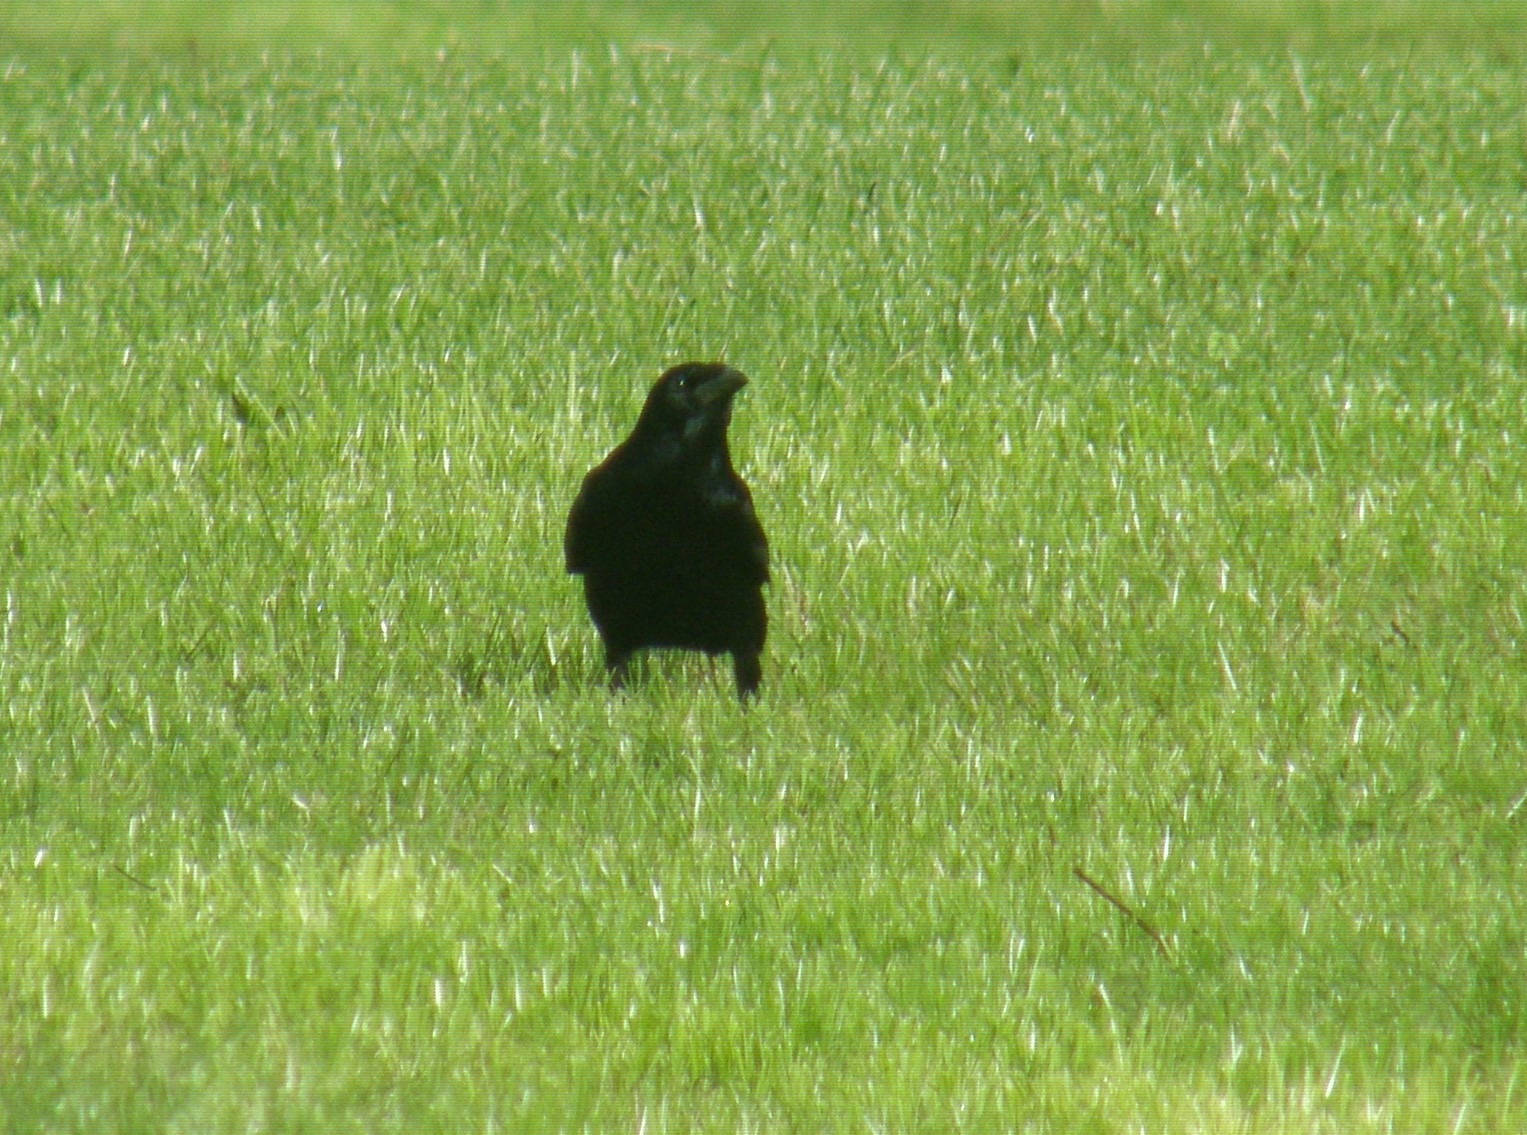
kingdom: Animalia
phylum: Chordata
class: Aves
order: Passeriformes
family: Corvidae
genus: Corvus
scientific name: Corvus frugilegus
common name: Råge
